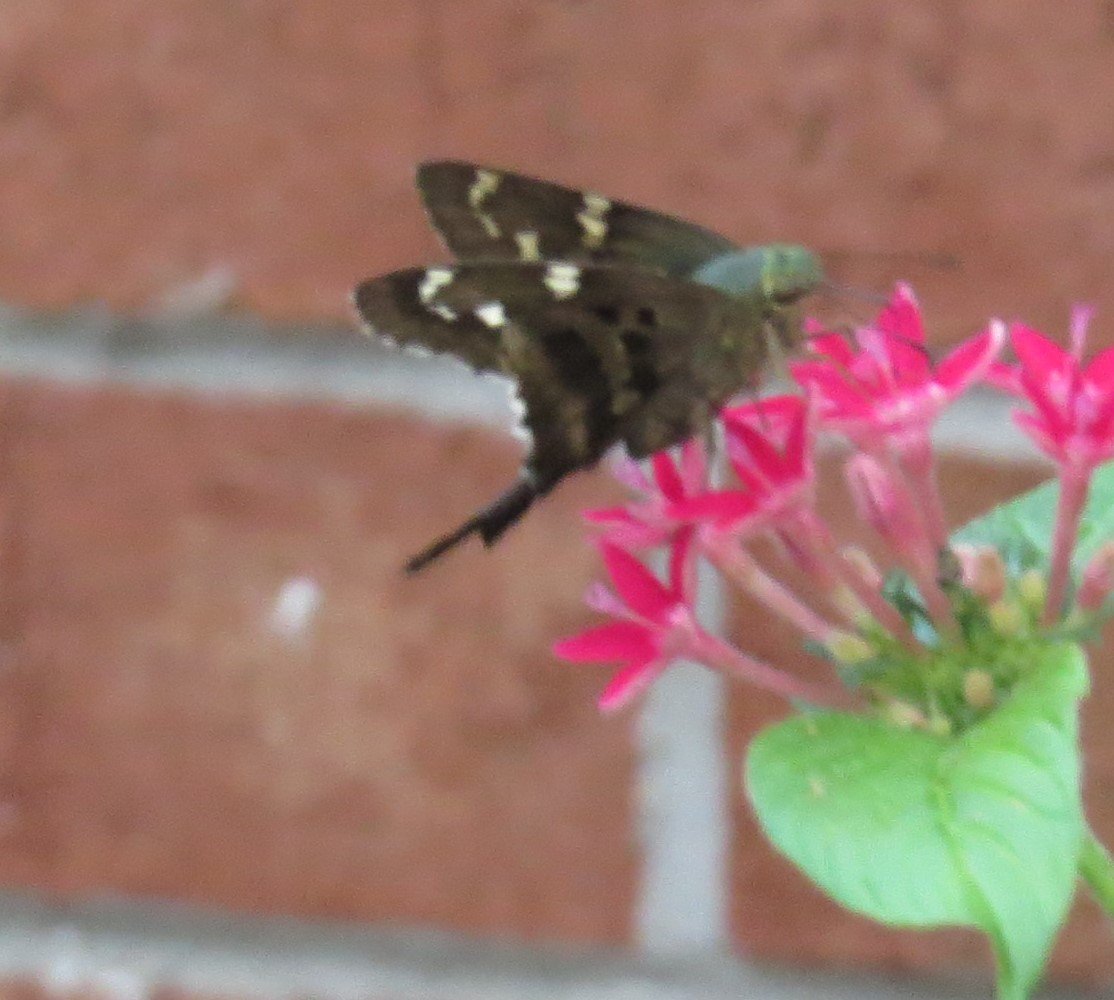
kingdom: Animalia
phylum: Arthropoda
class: Insecta
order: Lepidoptera
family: Hesperiidae
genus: Urbanus
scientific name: Urbanus proteus
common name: Long-tailed Skipper
